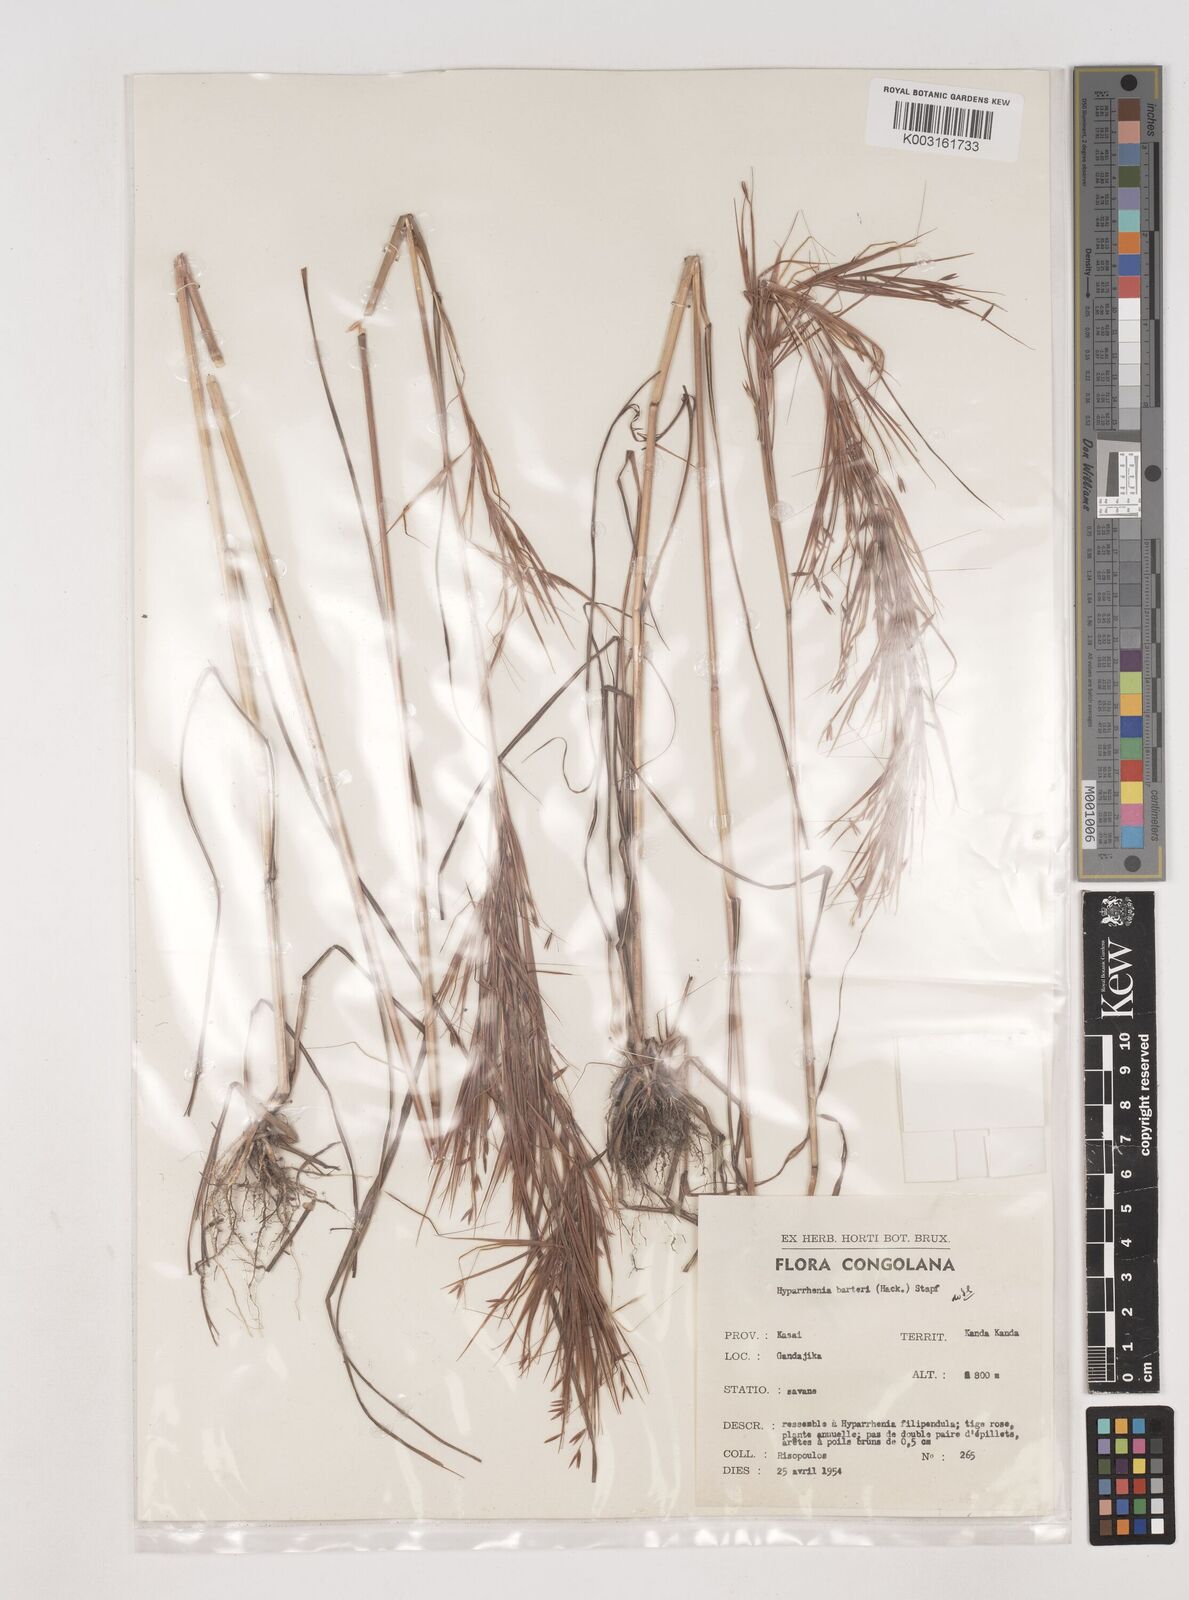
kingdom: Plantae
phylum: Tracheophyta
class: Liliopsida
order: Poales
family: Poaceae
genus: Hyparrhenia
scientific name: Hyparrhenia barteri
